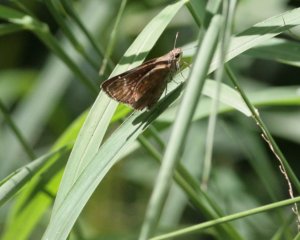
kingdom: Animalia
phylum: Arthropoda
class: Insecta
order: Lepidoptera
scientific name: Lepidoptera
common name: Butterflies
